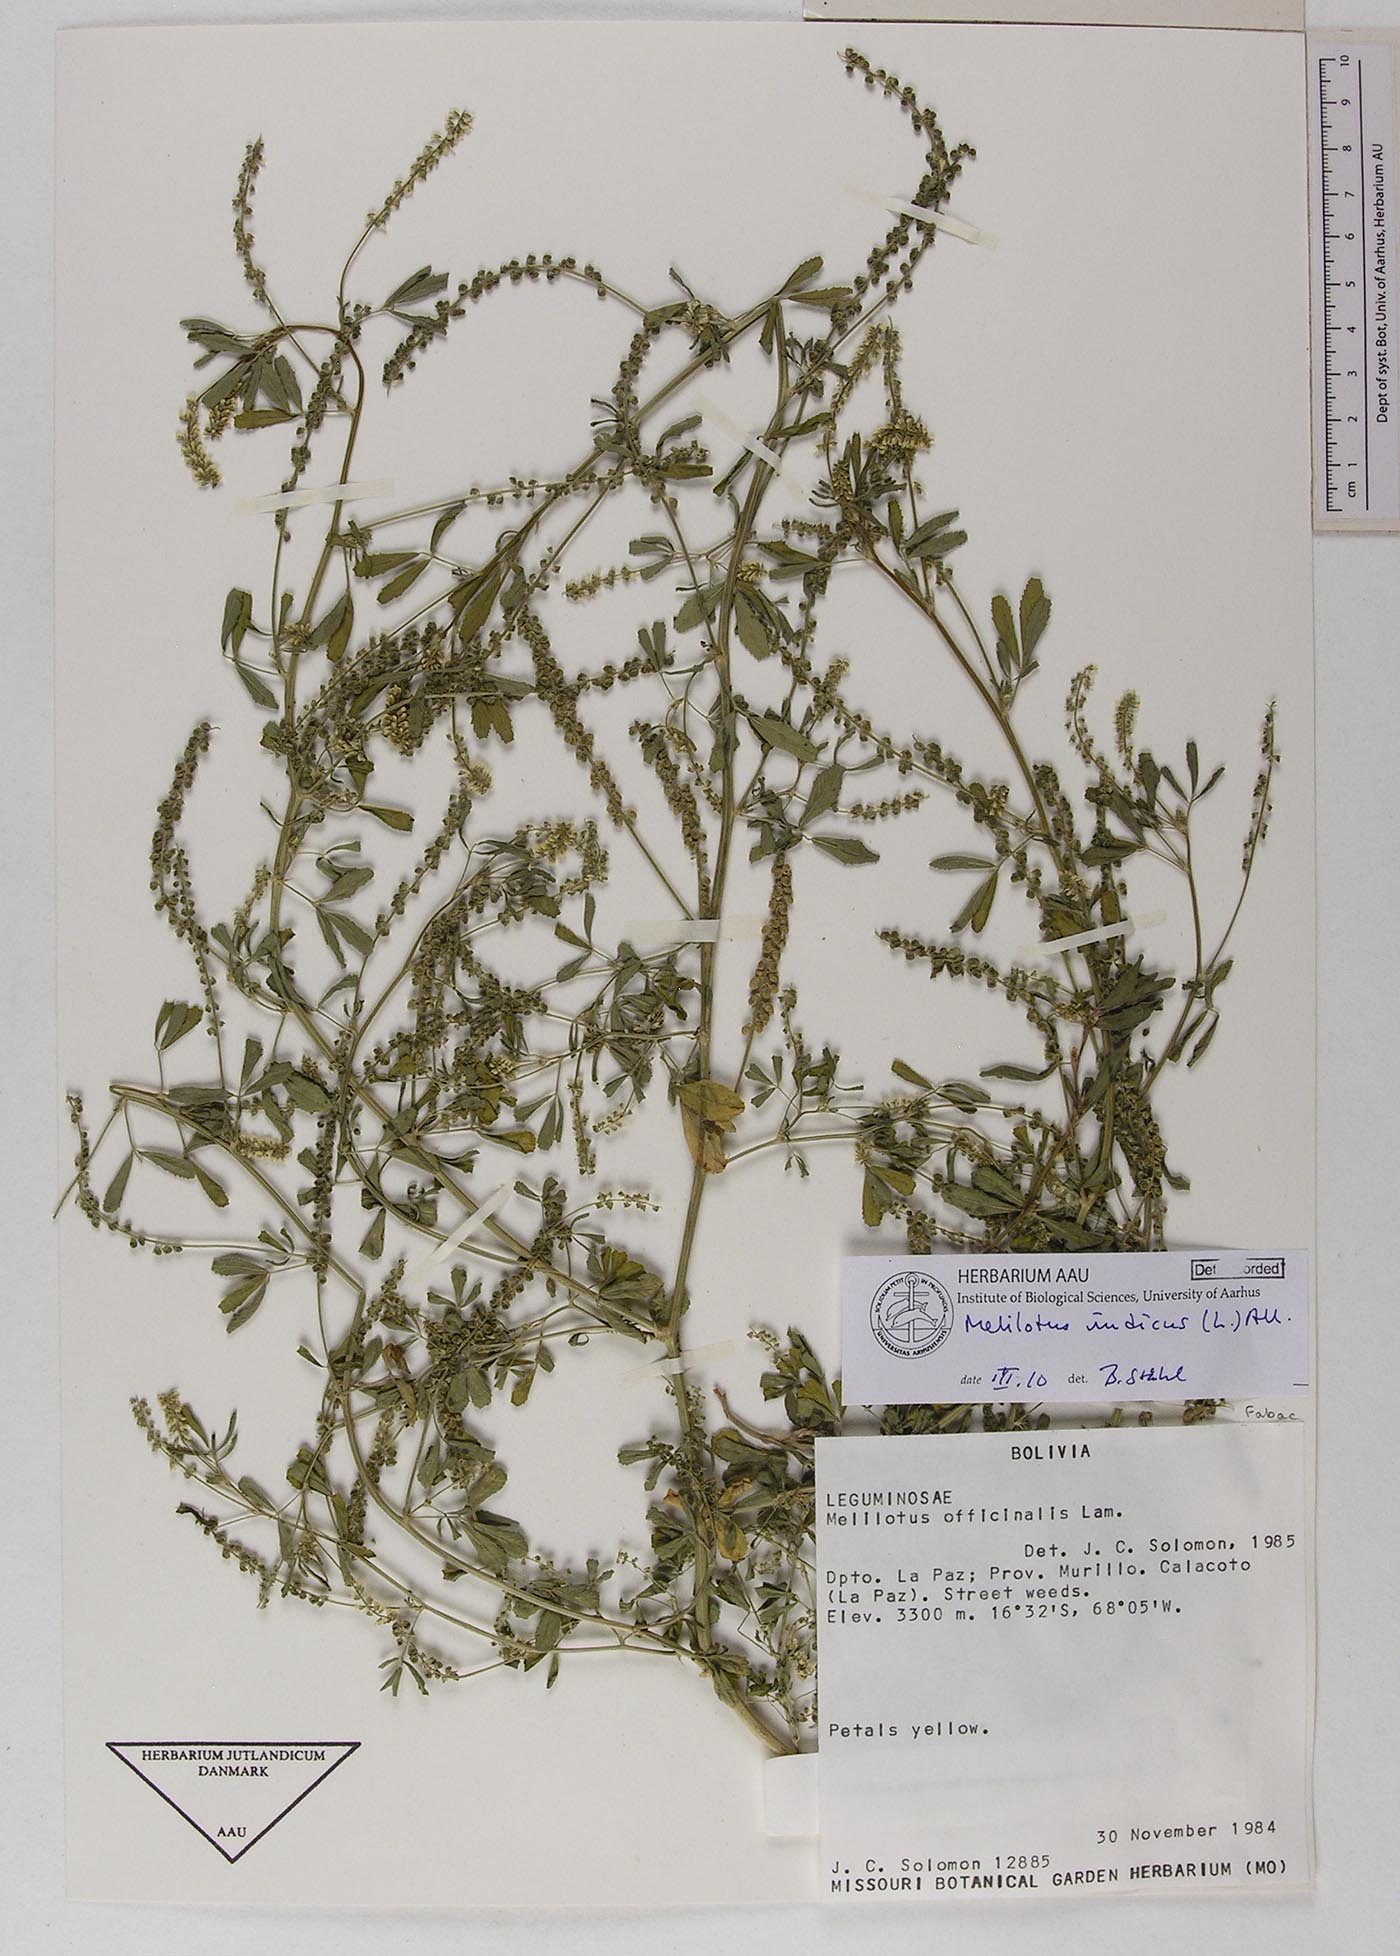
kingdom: Plantae
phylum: Tracheophyta
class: Magnoliopsida
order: Fabales
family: Fabaceae
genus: Melilotus
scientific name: Melilotus indicus
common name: Small melilot
